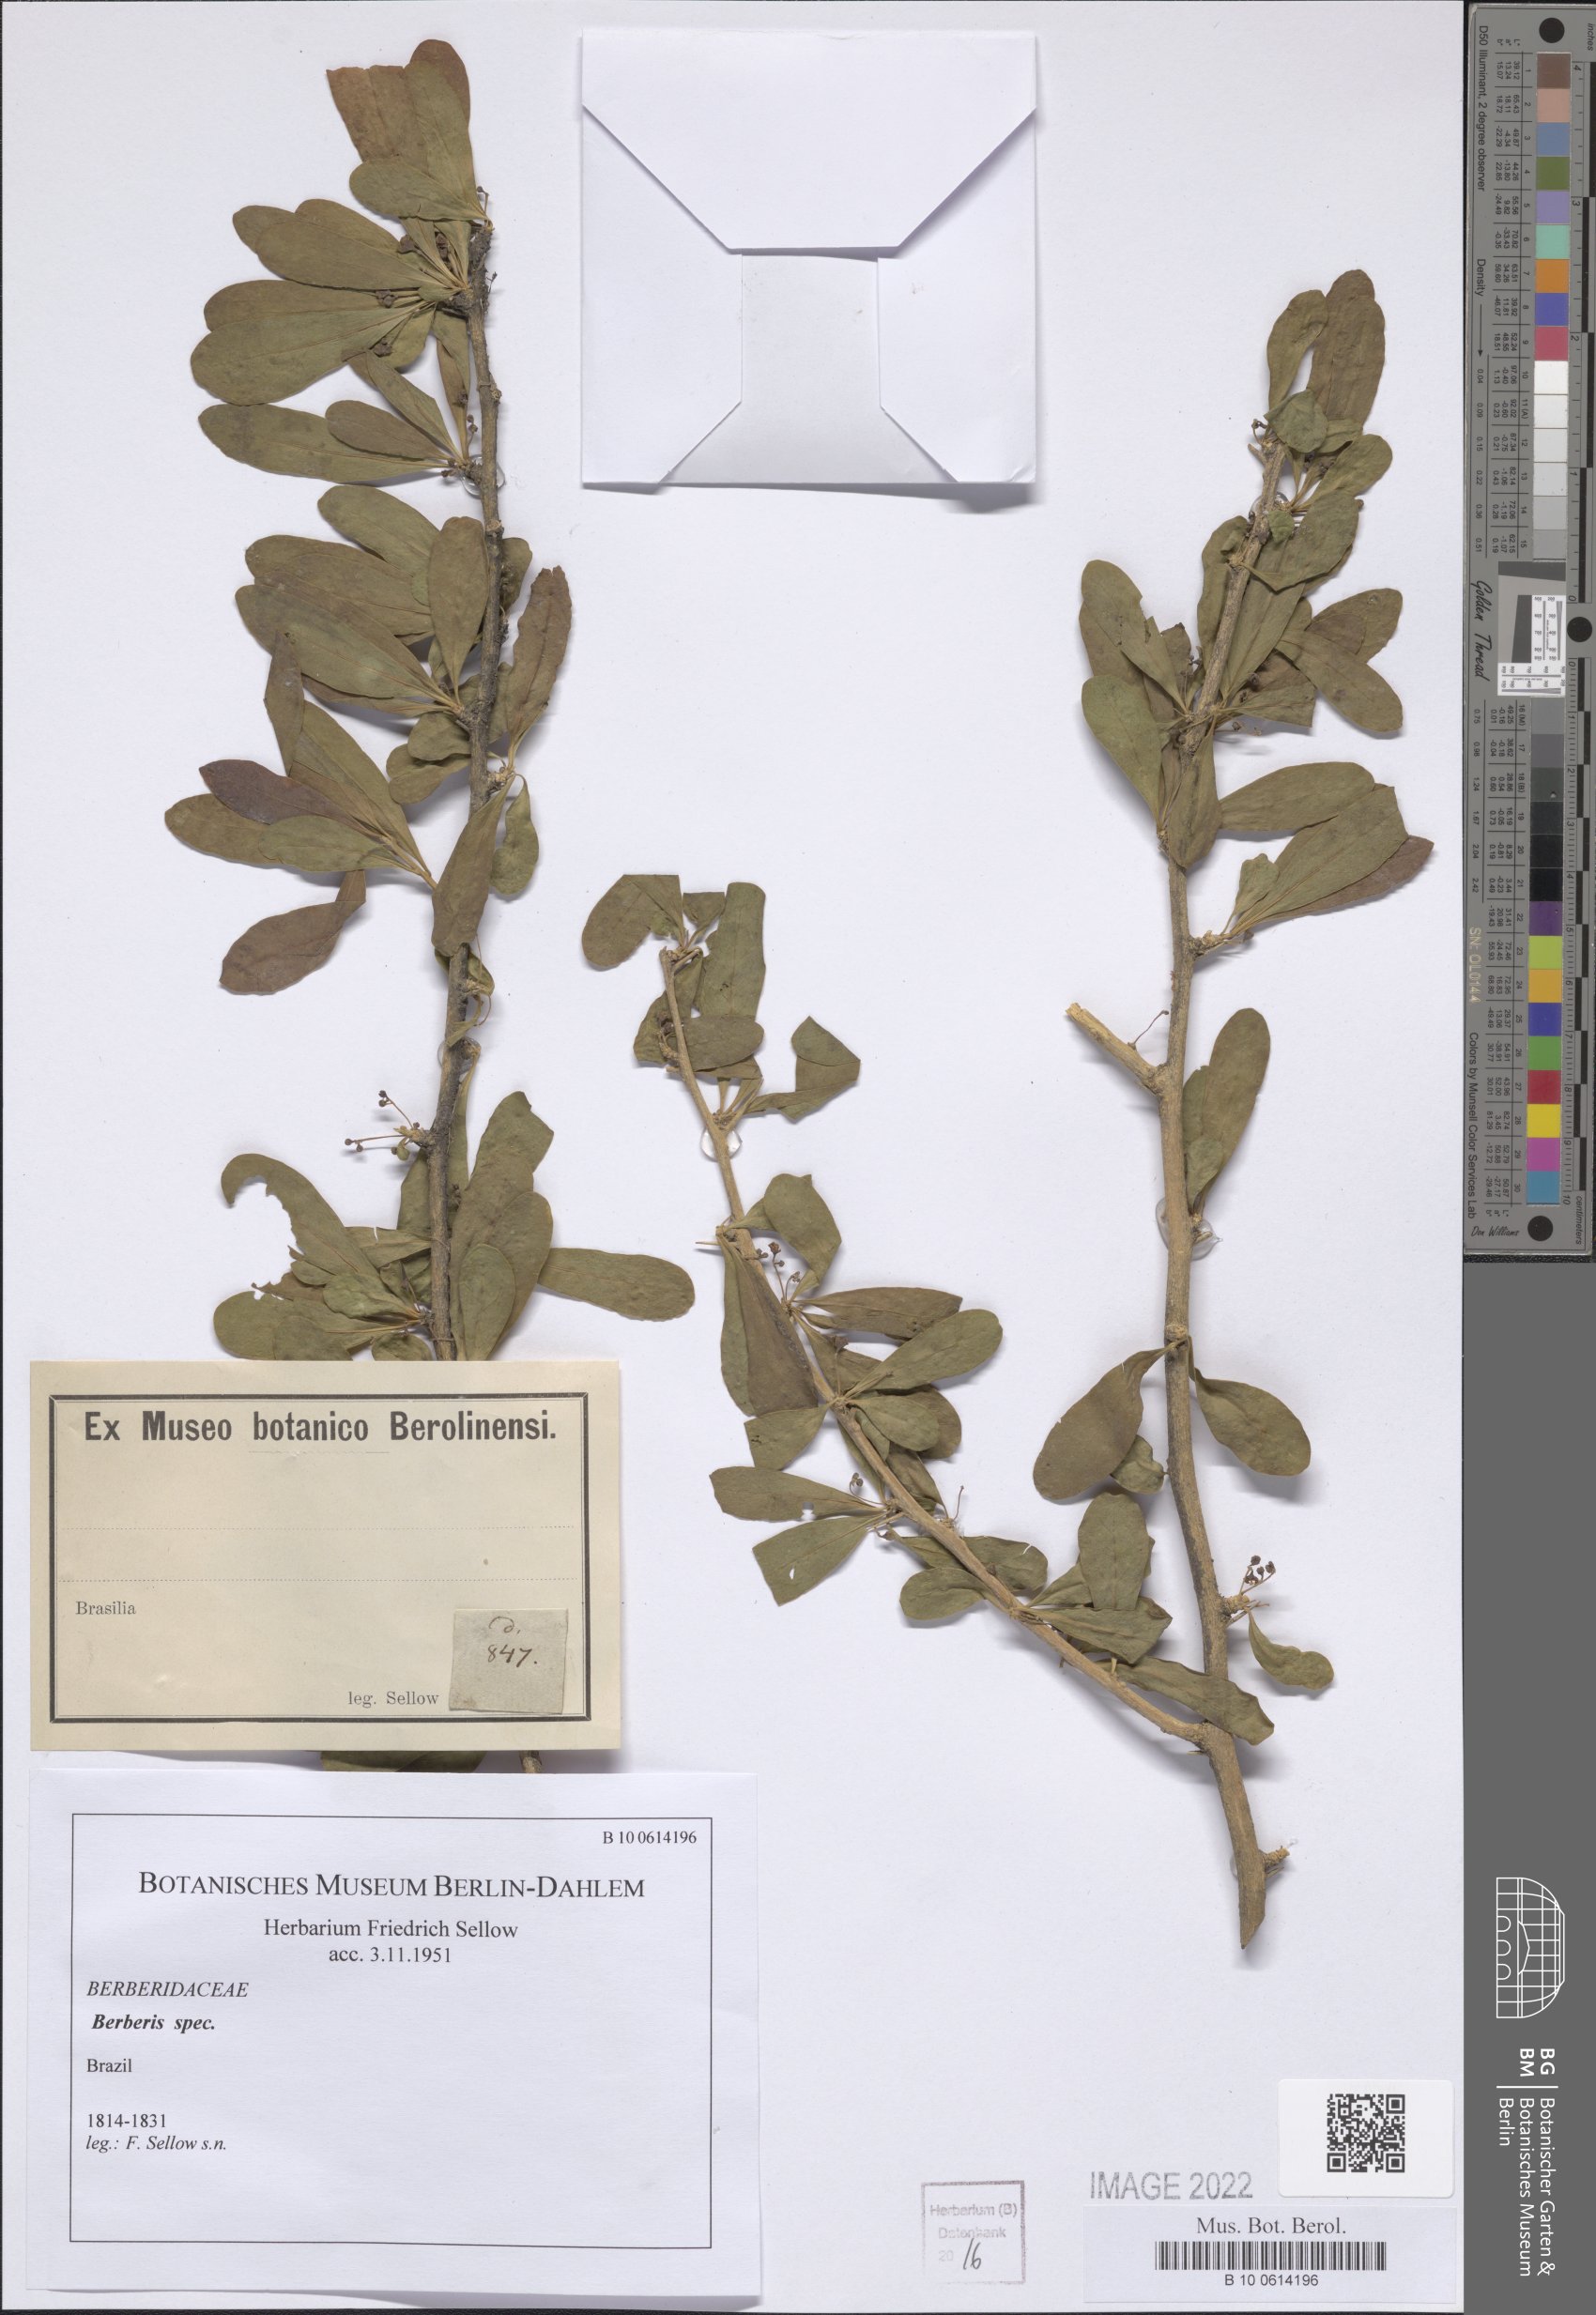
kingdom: Plantae
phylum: Tracheophyta
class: Magnoliopsida
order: Ranunculales
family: Berberidaceae
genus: Berberis
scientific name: Berberis
